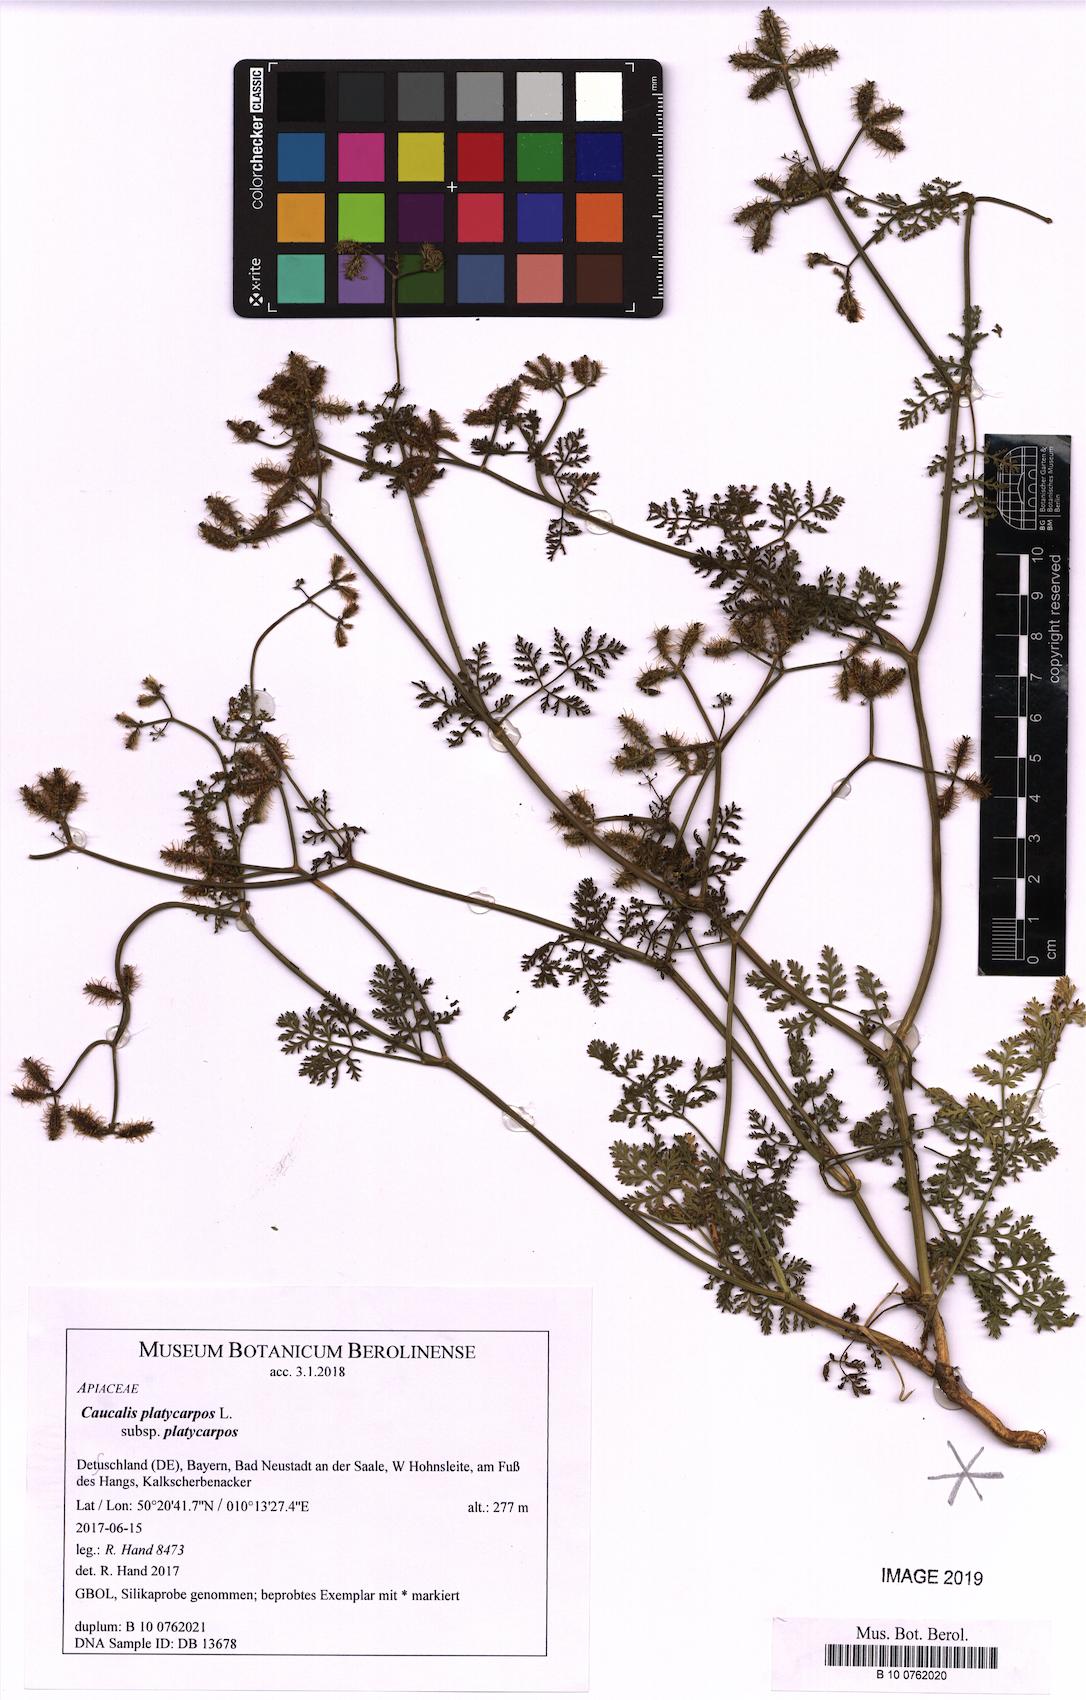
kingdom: Plantae
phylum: Tracheophyta
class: Magnoliopsida
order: Apiales
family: Apiaceae
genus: Caucalis
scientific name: Caucalis platycarpos
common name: Small bur-parsley
